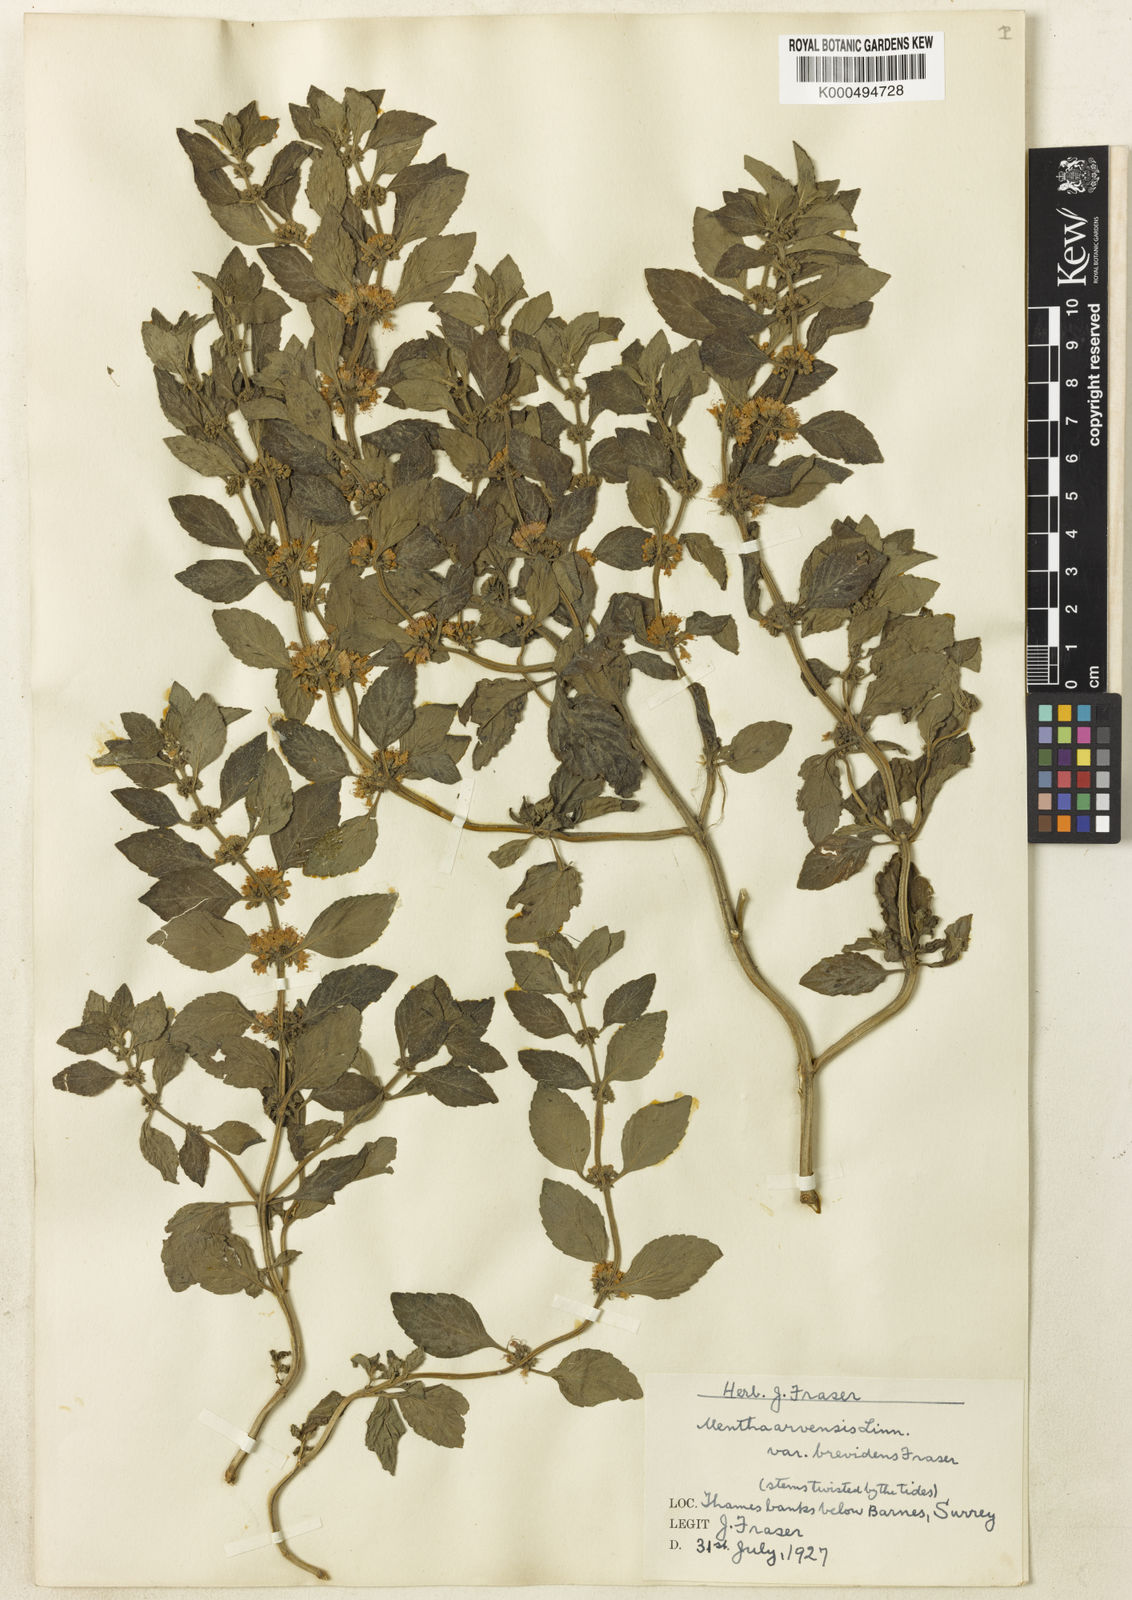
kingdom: Plantae
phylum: Tracheophyta
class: Magnoliopsida
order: Lamiales
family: Lamiaceae
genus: Mentha
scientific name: Mentha arvensis
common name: Corn mint
